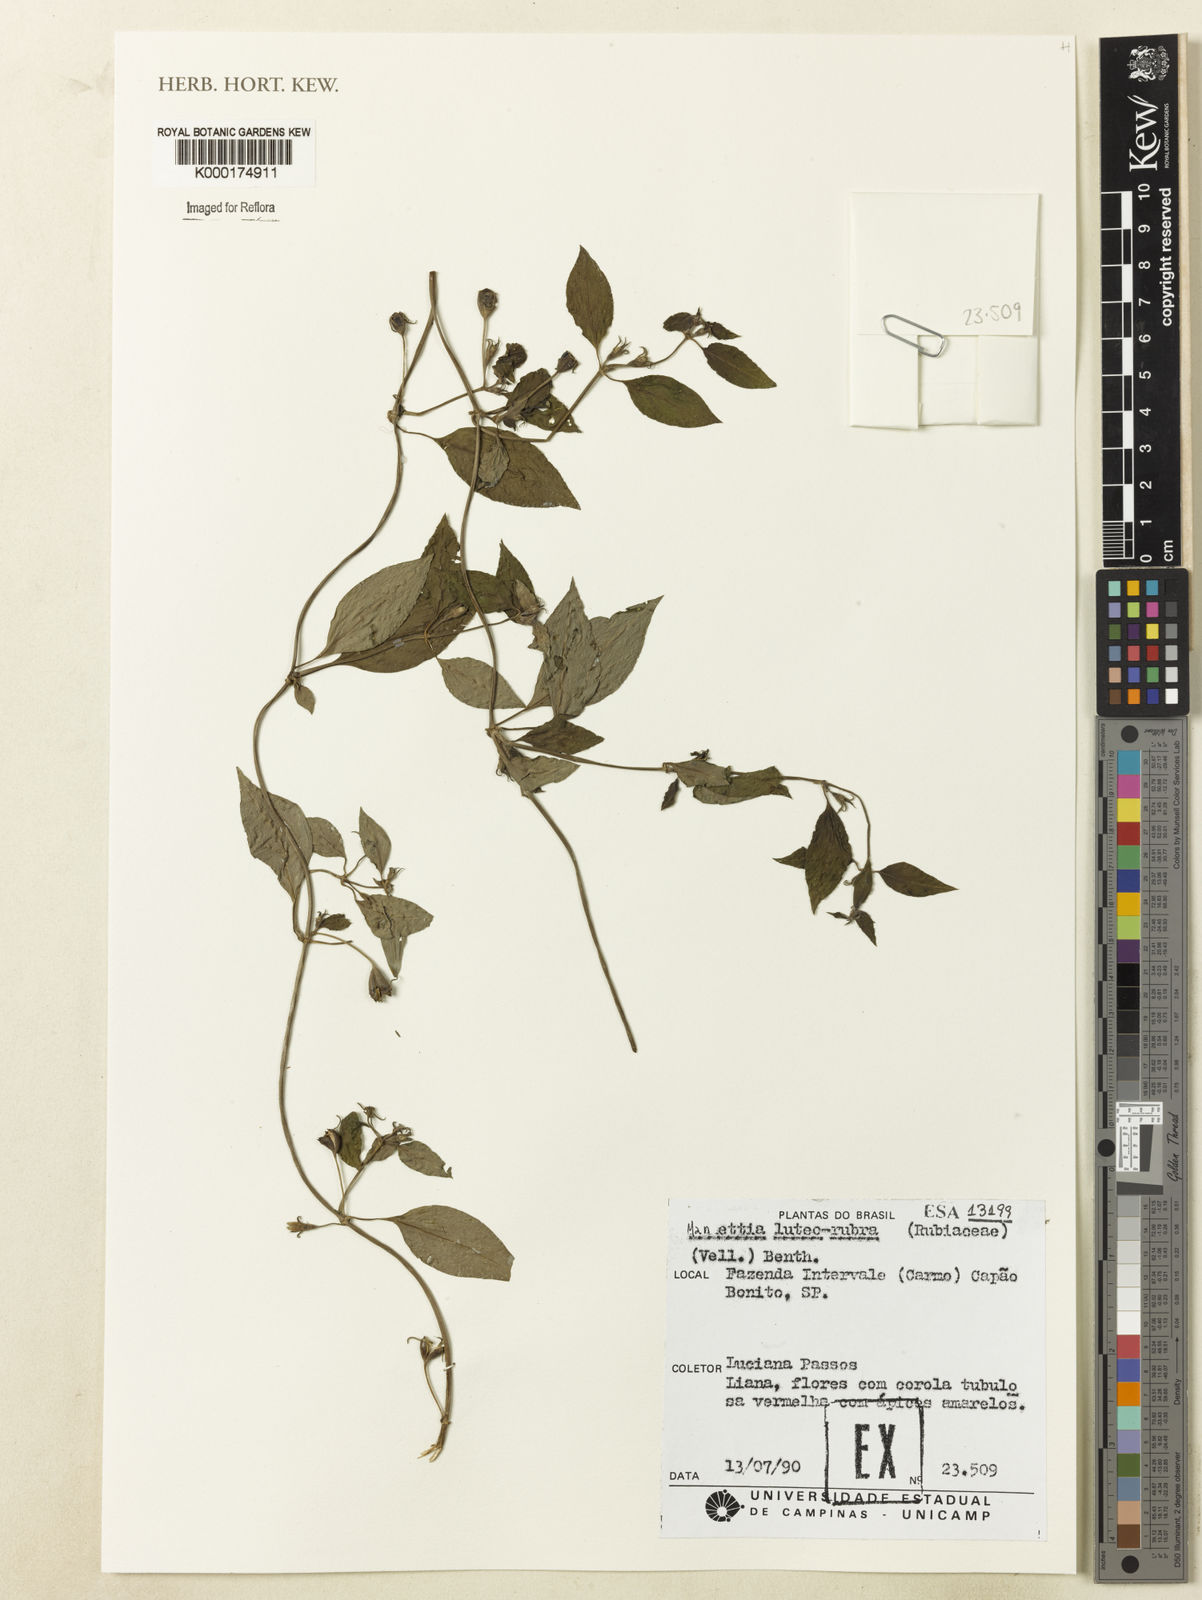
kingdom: Plantae
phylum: Tracheophyta
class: Magnoliopsida
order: Gentianales
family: Rubiaceae
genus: Manettia
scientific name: Manettia luteorubra
